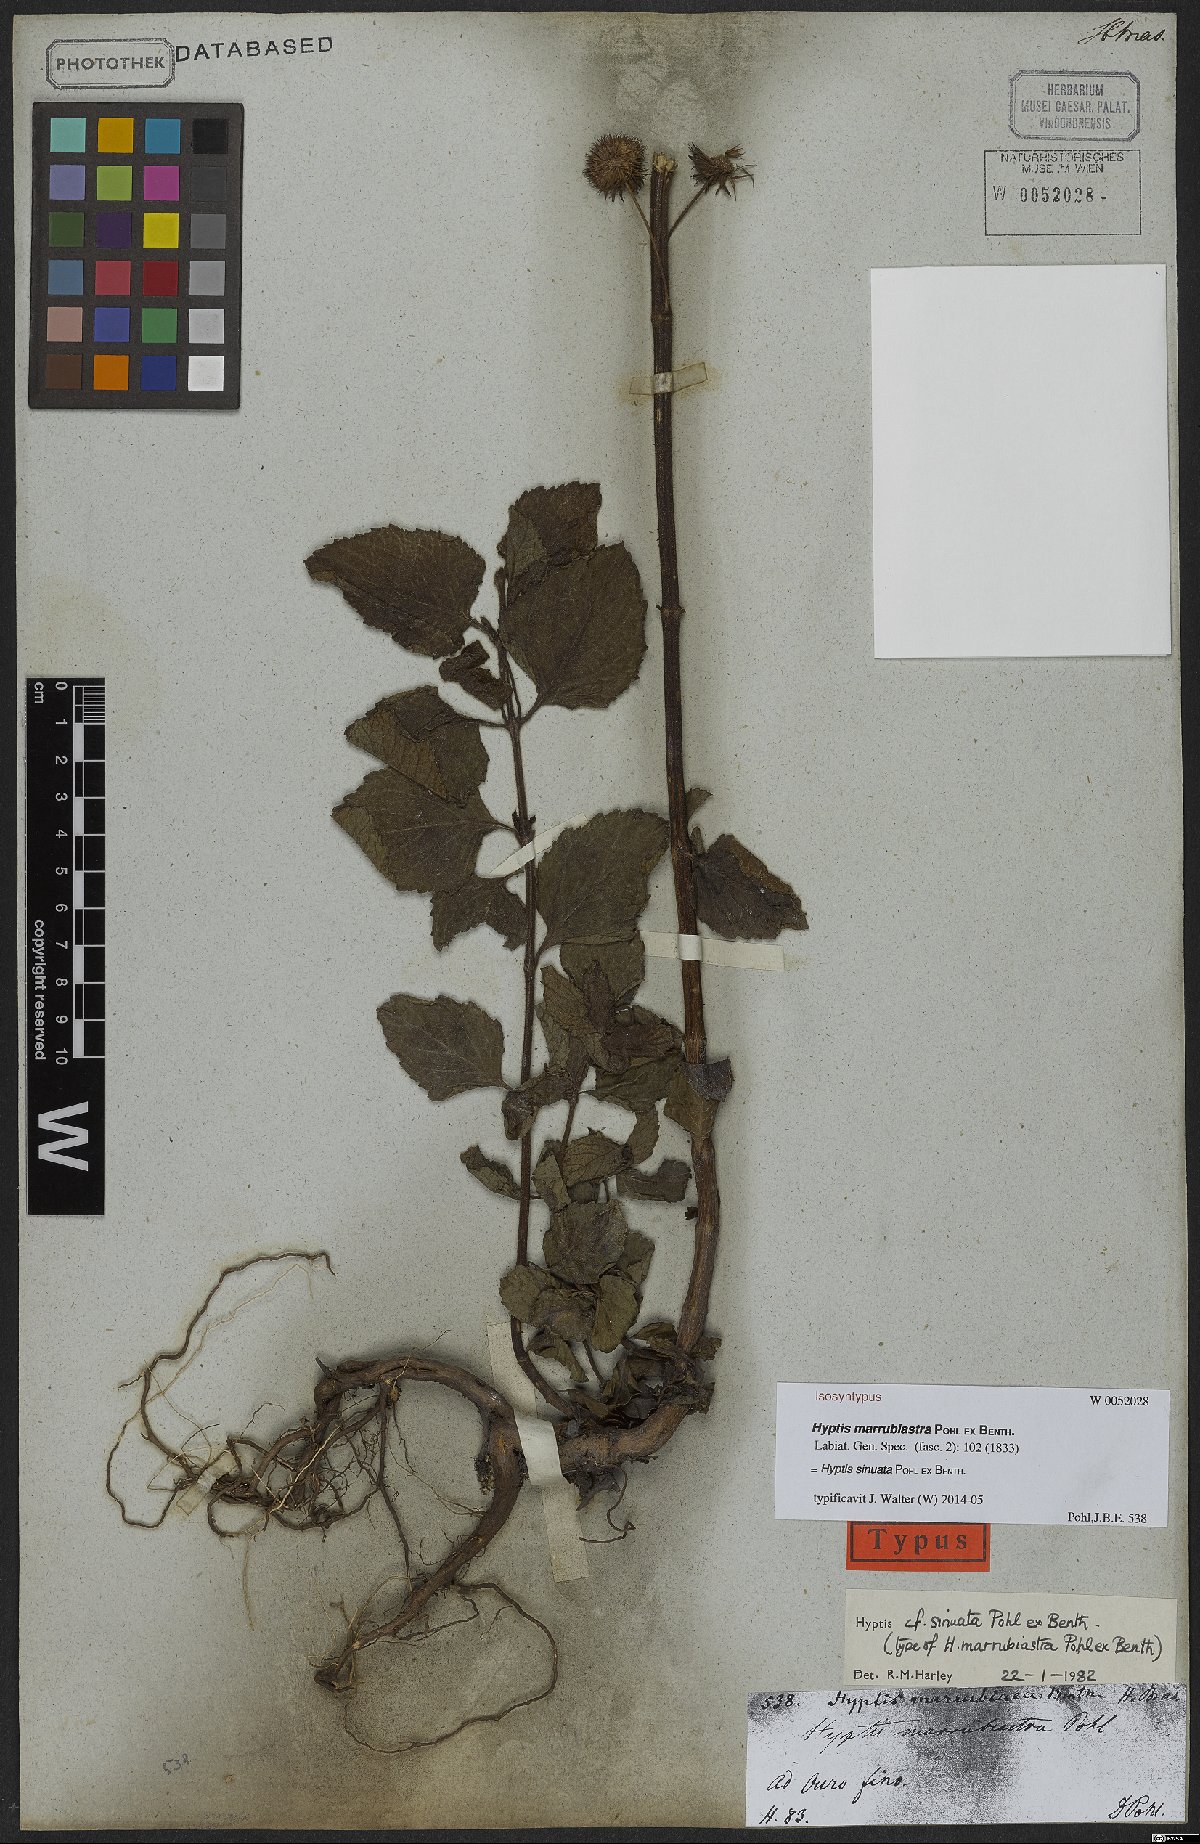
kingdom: Plantae
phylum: Tracheophyta
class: Magnoliopsida
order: Lamiales
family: Lamiaceae
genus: Hyptis
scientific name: Hyptis sinuata
